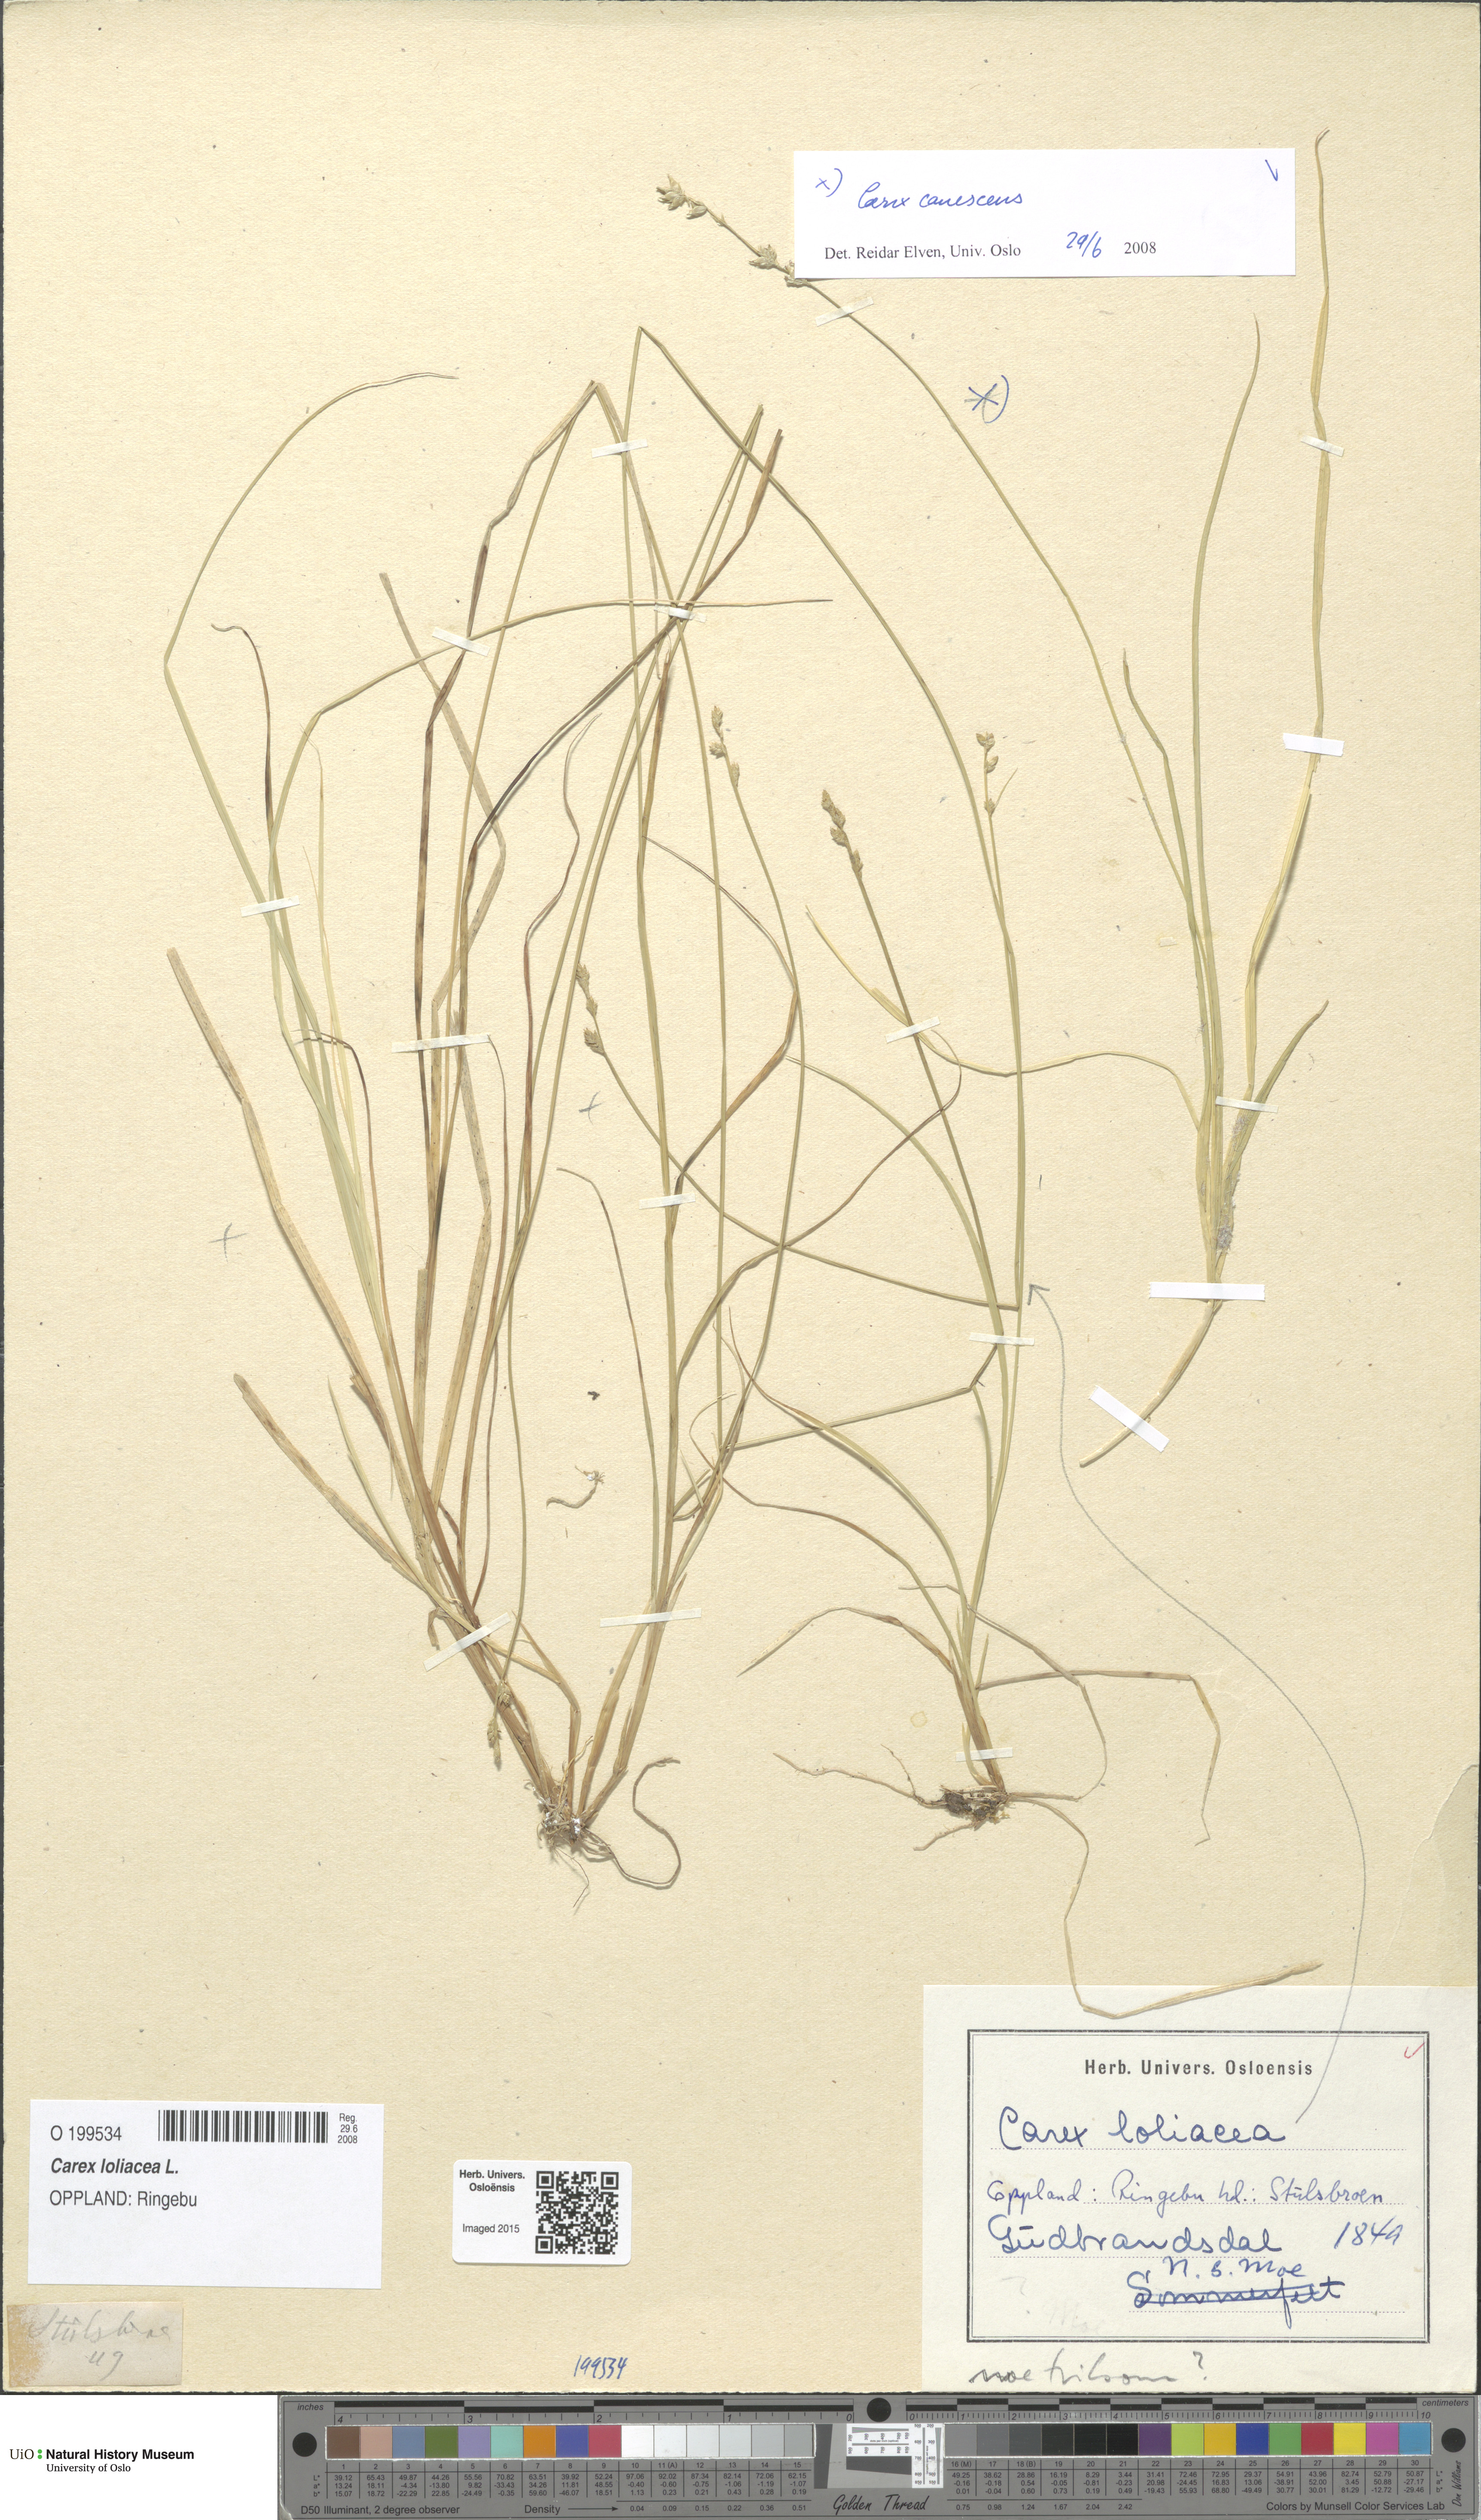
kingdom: Plantae
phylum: Tracheophyta
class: Liliopsida
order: Poales
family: Cyperaceae
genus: Carex
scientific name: Carex loliacea
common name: Ryegrass sedge
